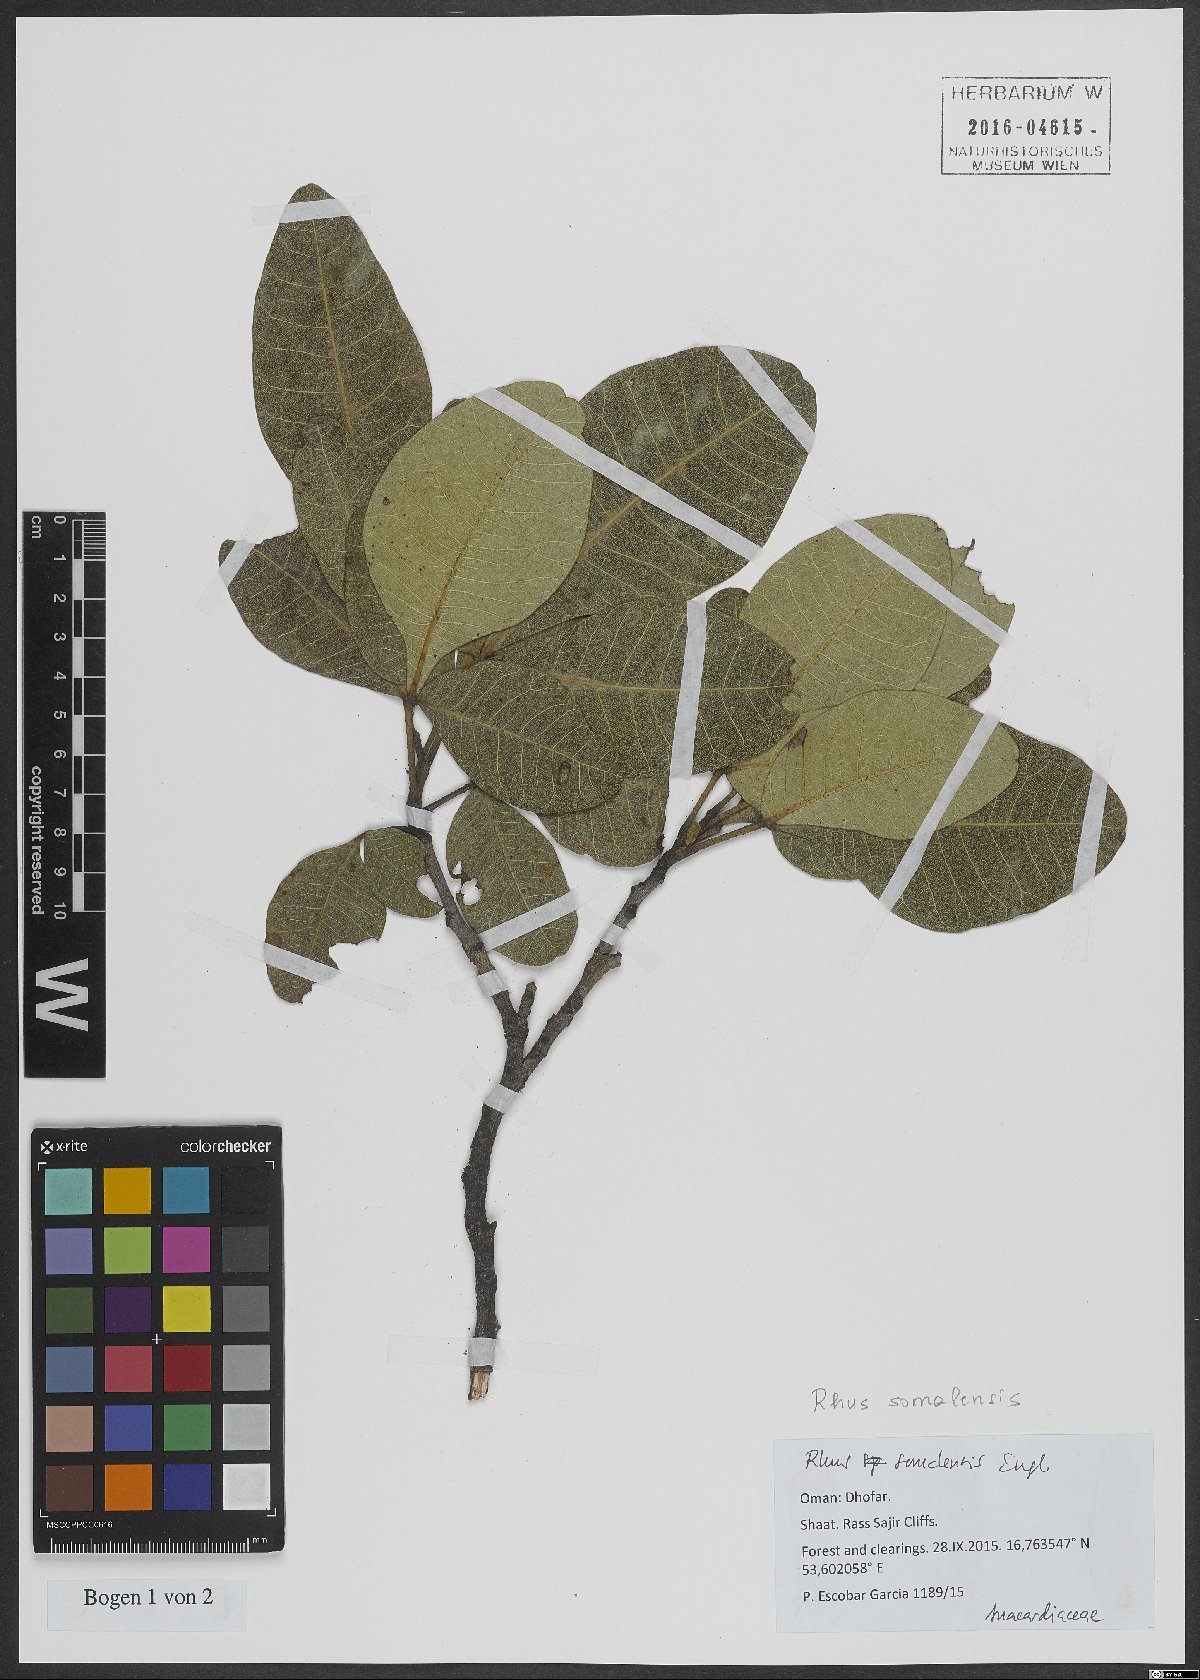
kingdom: Plantae
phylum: Tracheophyta
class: Magnoliopsida
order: Sapindales
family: Anacardiaceae
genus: Searsia
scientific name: Searsia somalensis
